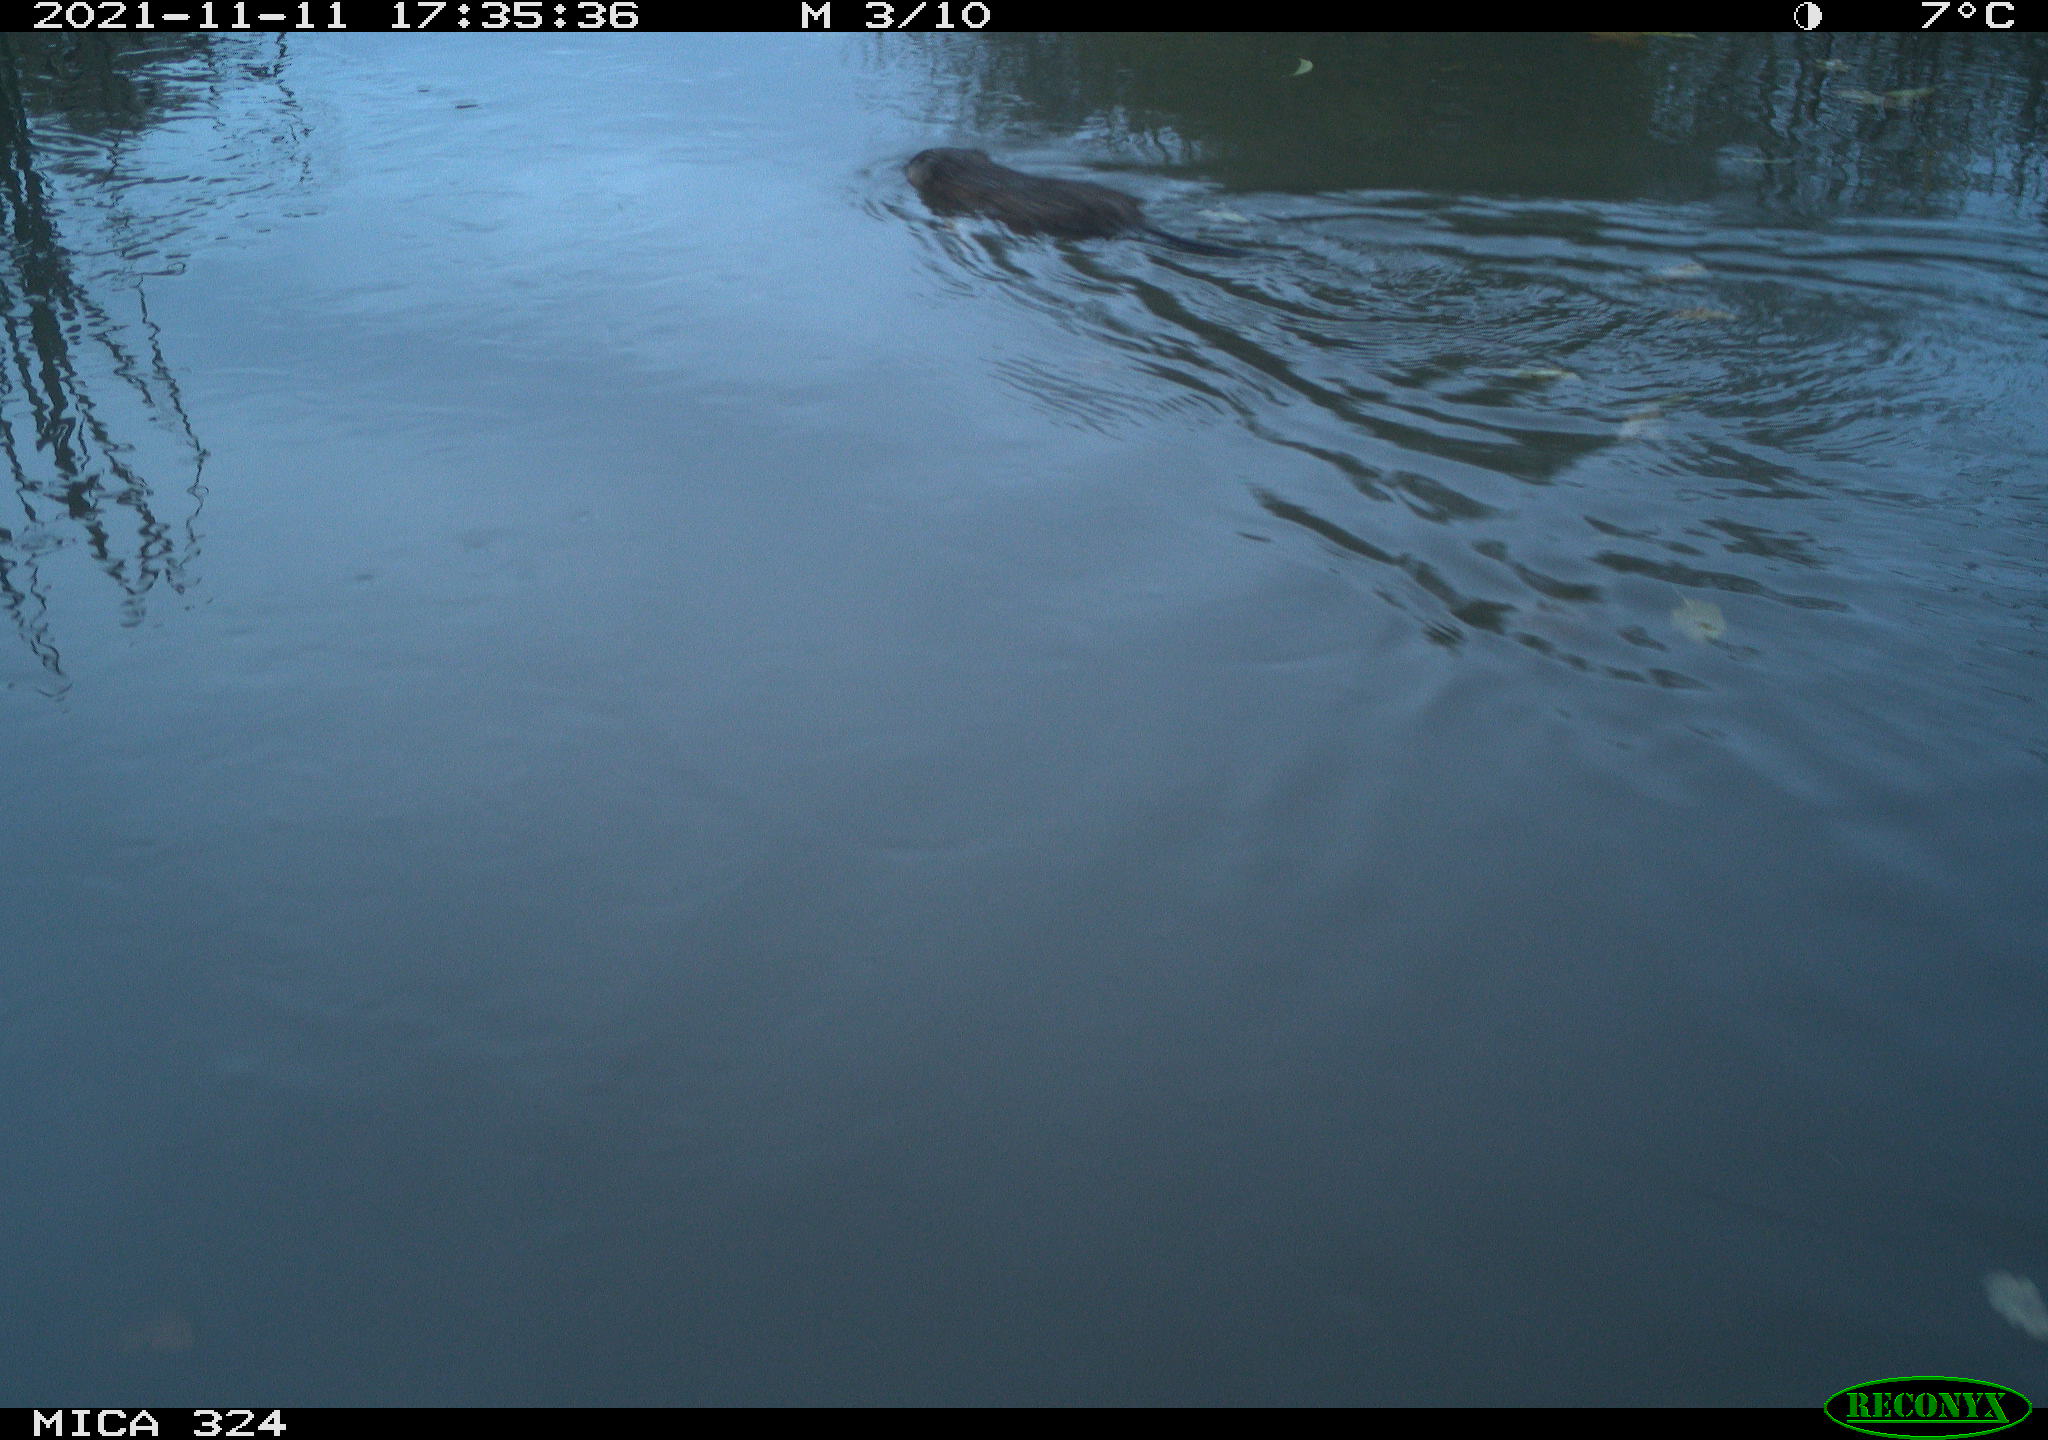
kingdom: Animalia
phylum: Chordata
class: Mammalia
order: Rodentia
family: Cricetidae
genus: Ondatra
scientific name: Ondatra zibethicus
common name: Muskrat
